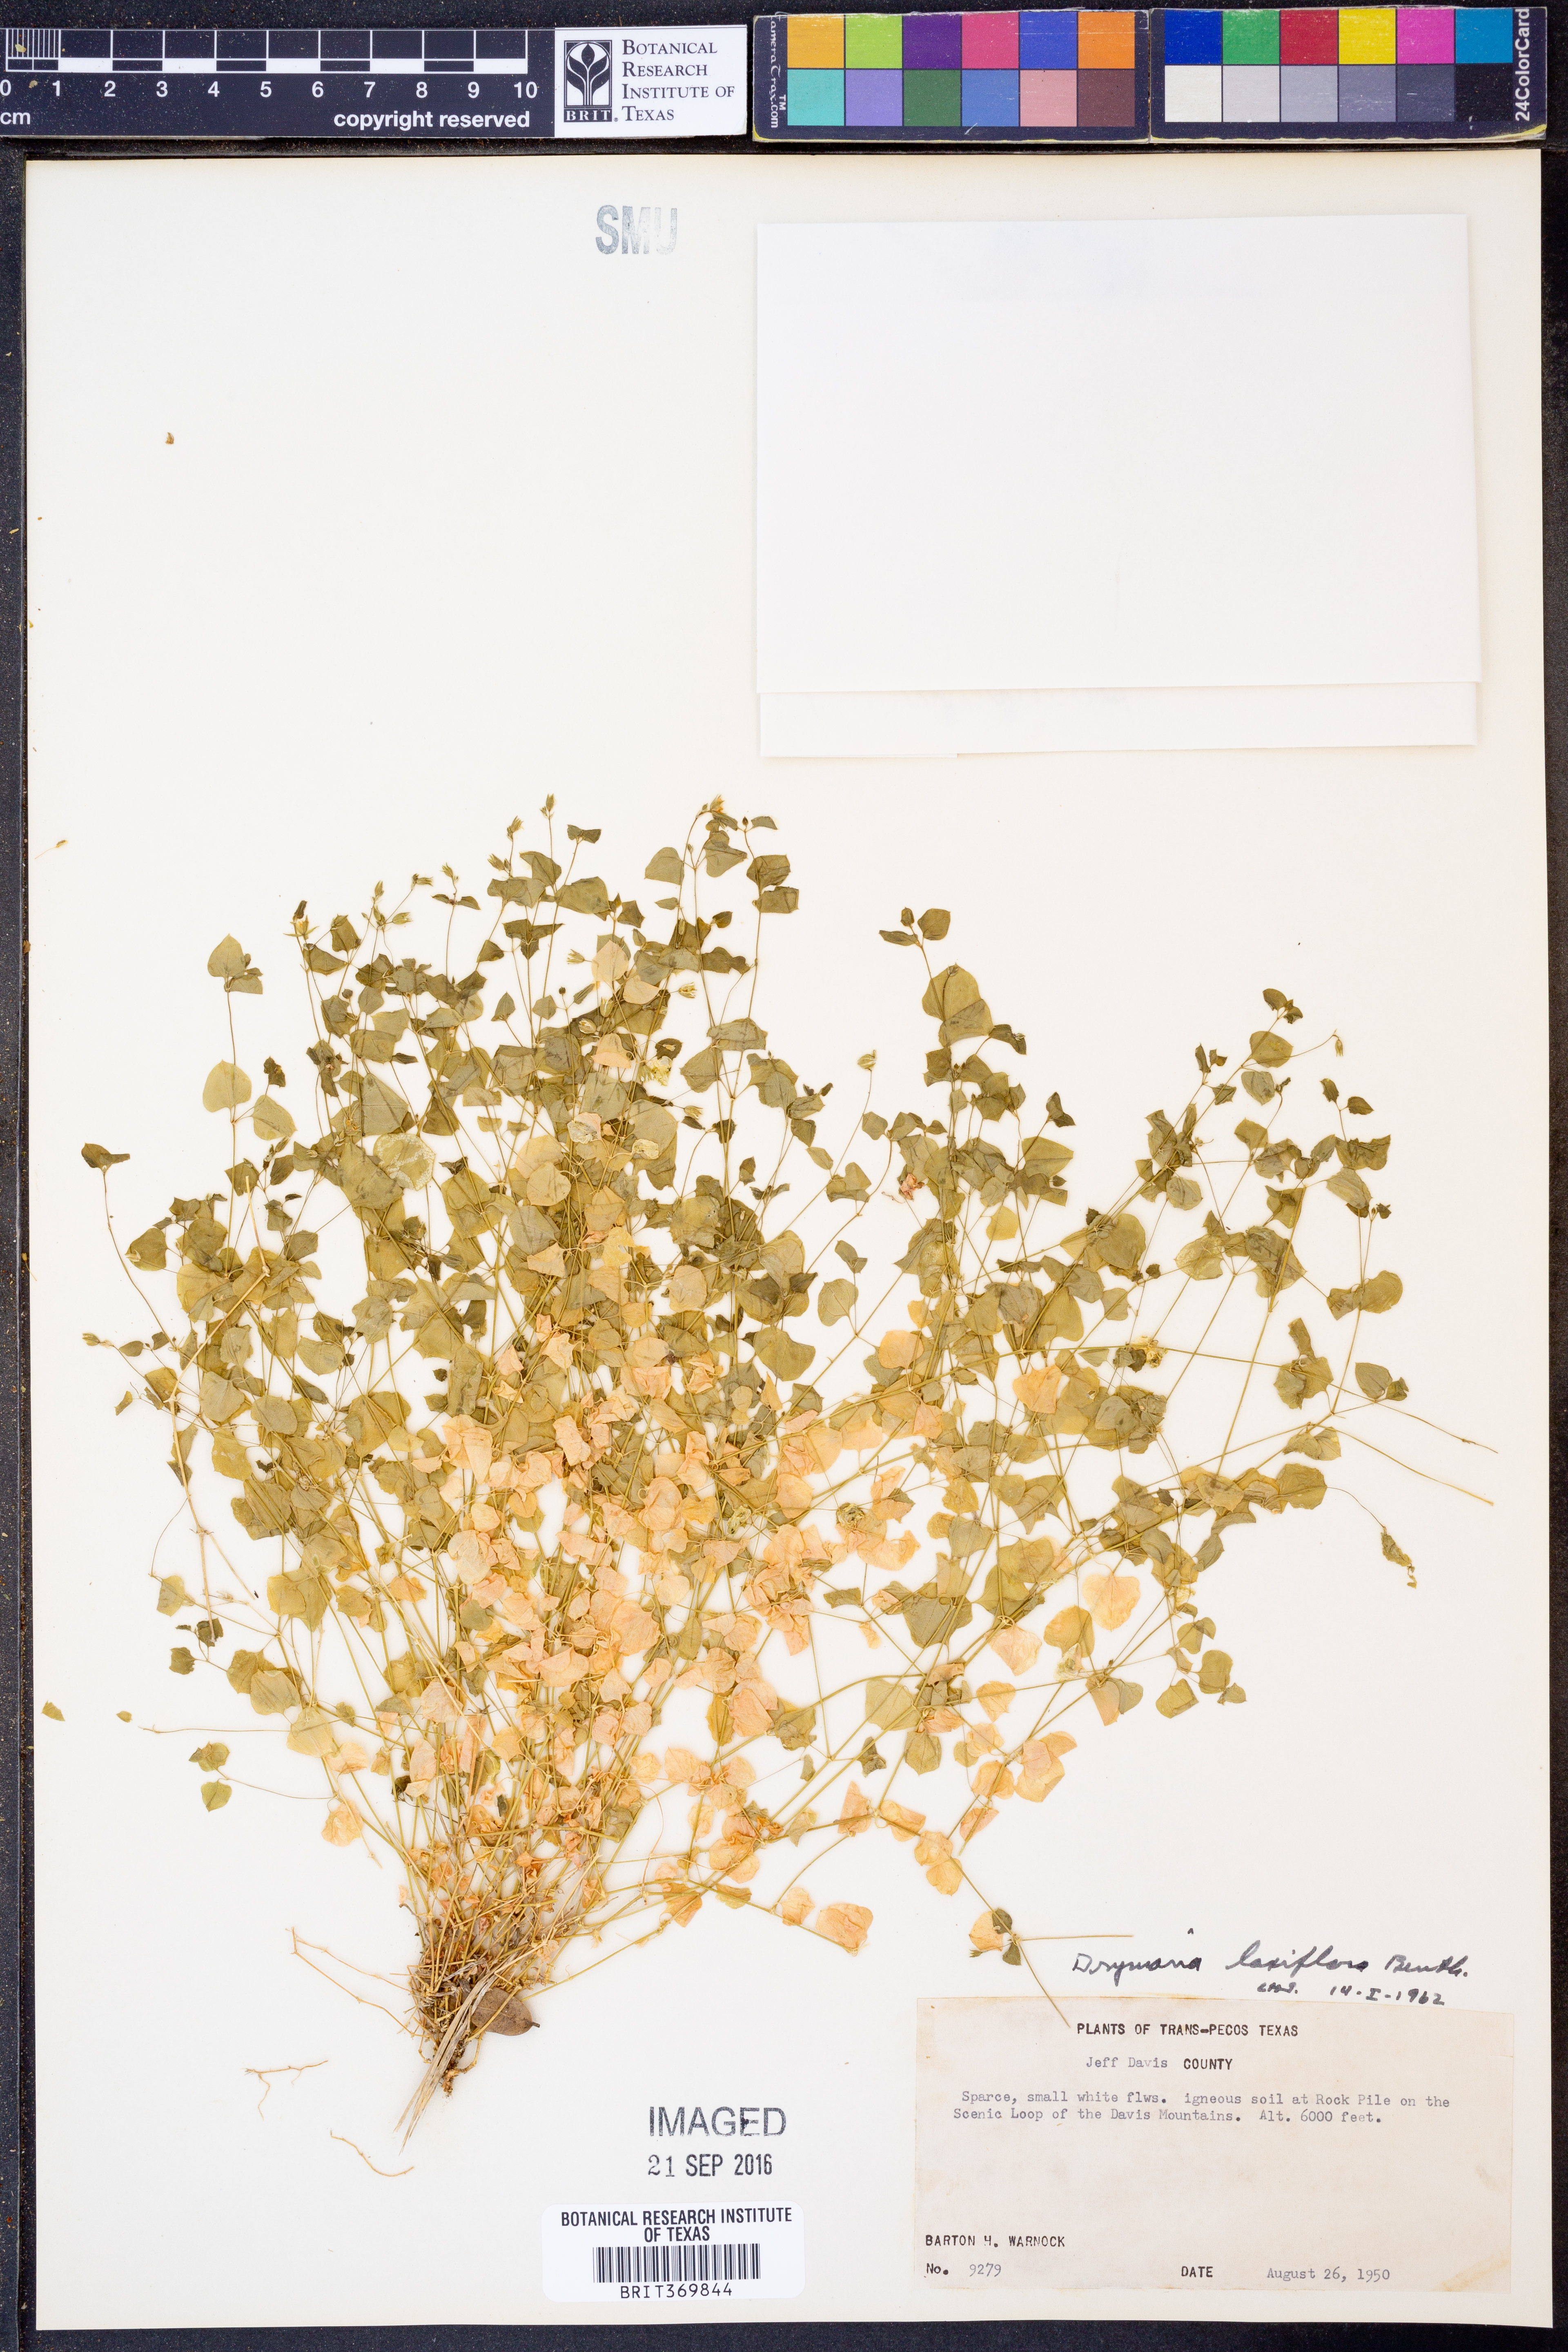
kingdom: Plantae
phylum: Tracheophyta
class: Magnoliopsida
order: Caryophyllales
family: Caryophyllaceae
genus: Drymaria
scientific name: Drymaria laxiflora
